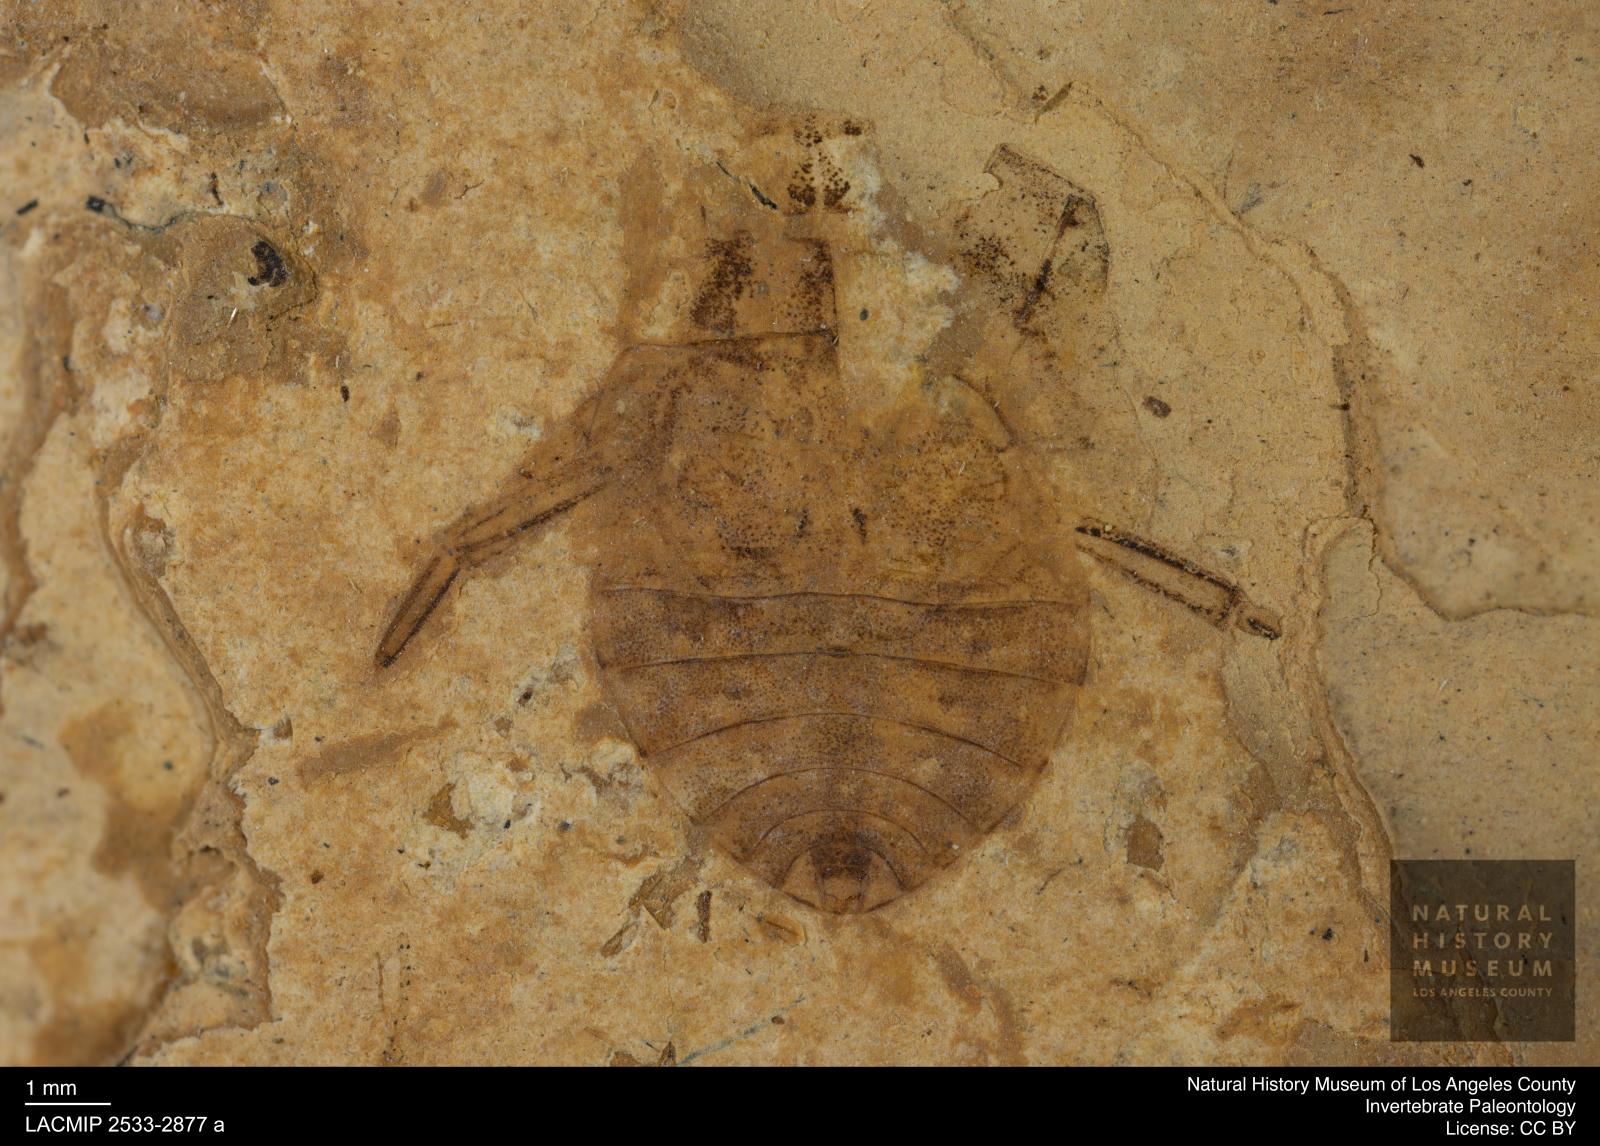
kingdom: Animalia
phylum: Arthropoda
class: Insecta
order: Hemiptera
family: Naucoridae
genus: Naucoris
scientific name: Naucoris rottensis
